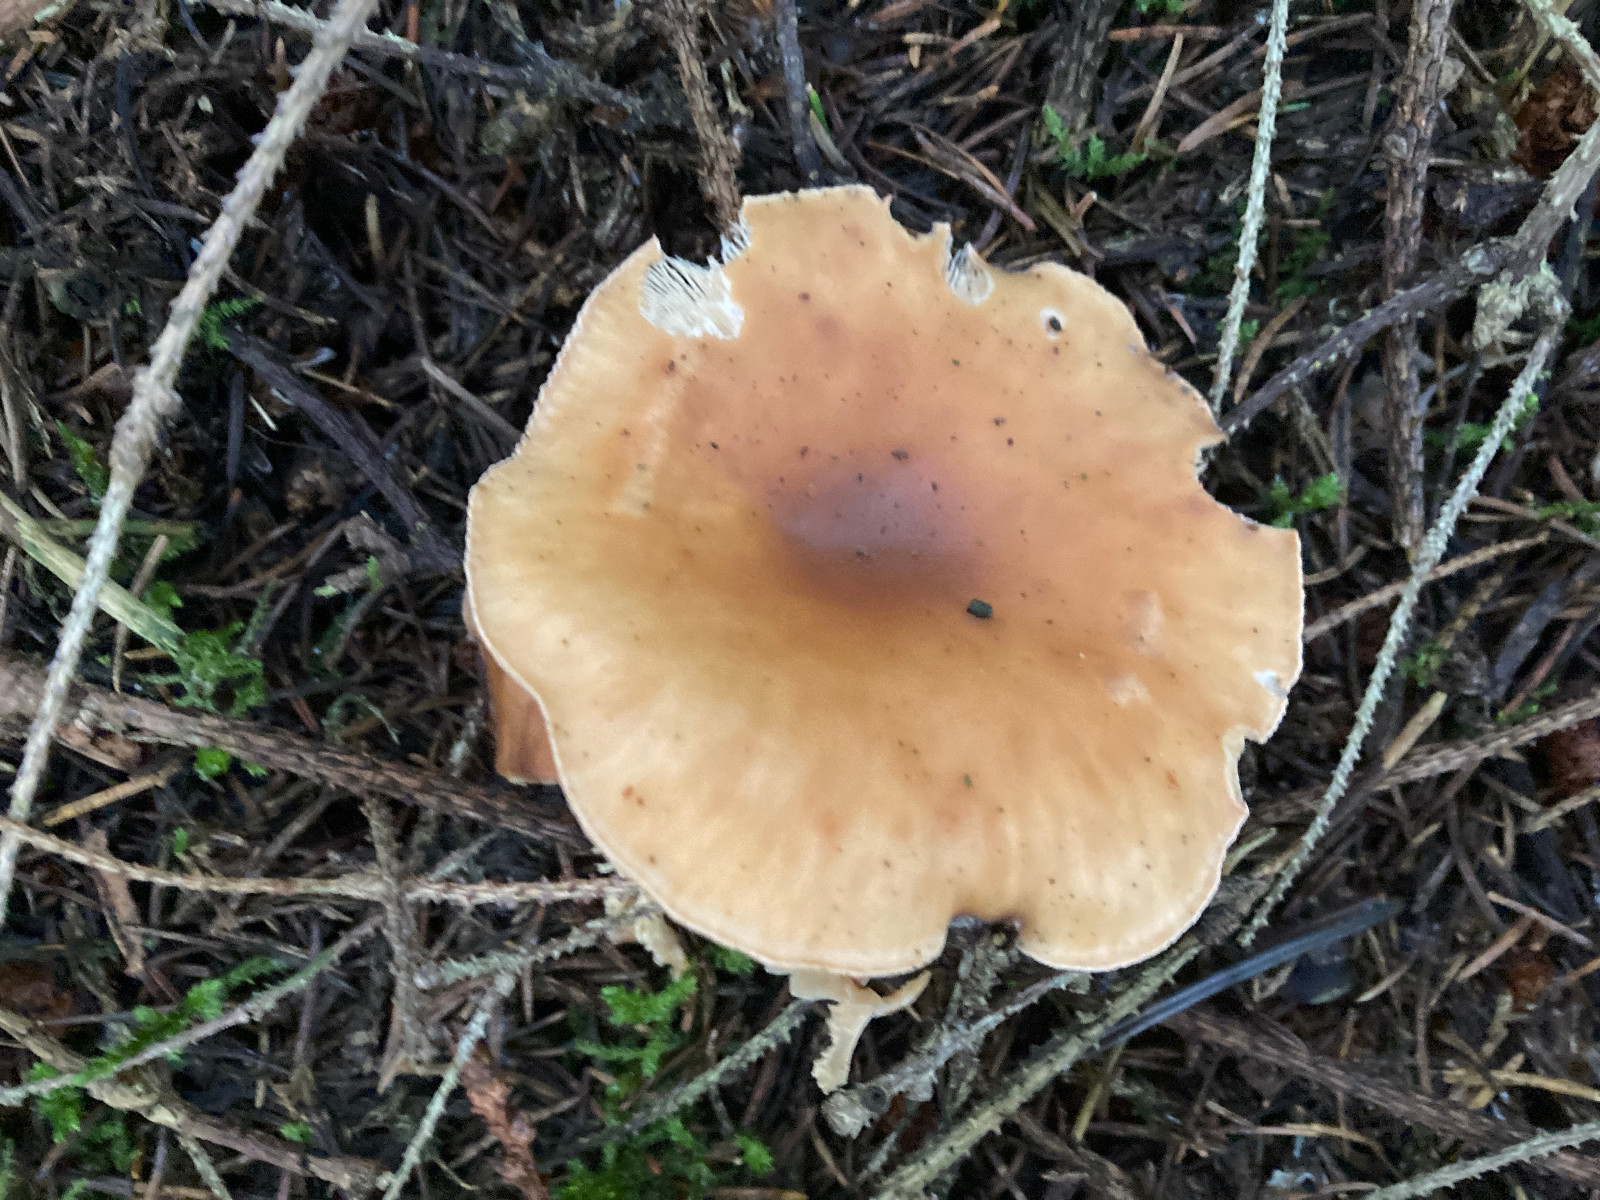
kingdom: Fungi
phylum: Basidiomycota
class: Agaricomycetes
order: Agaricales
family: Tricholomataceae
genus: Paralepista
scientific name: Paralepista flaccida
